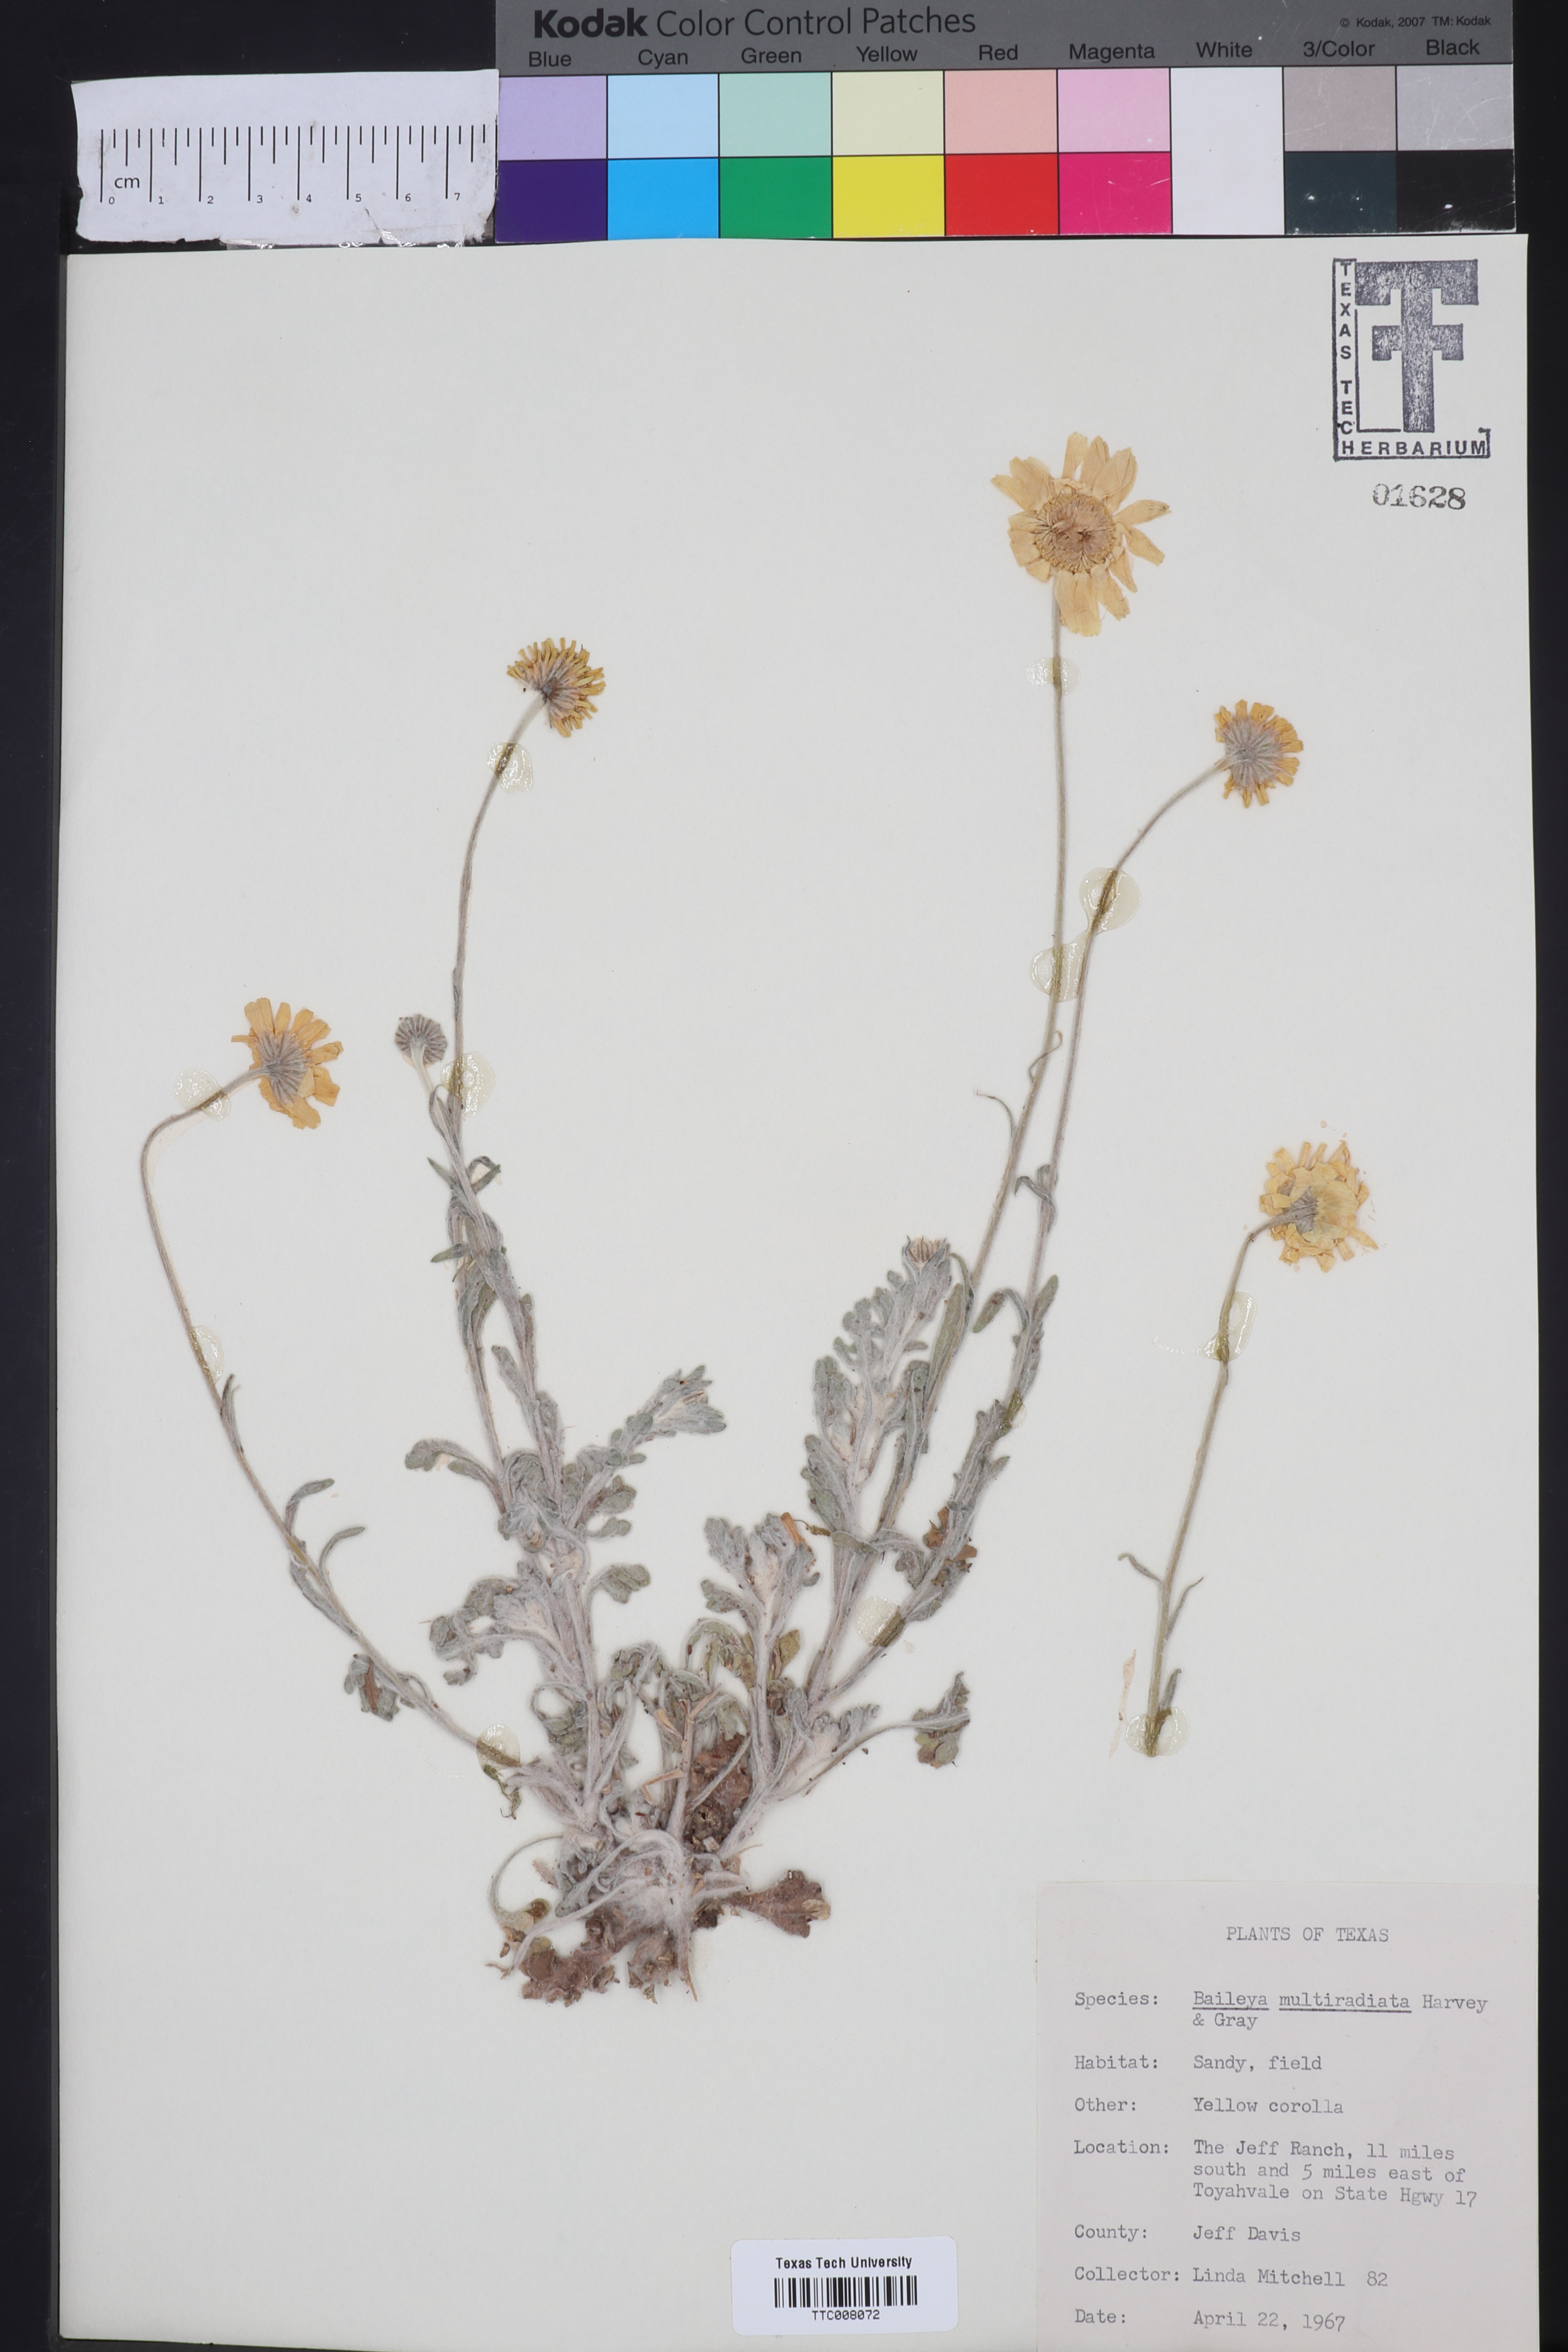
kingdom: Plantae
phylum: Tracheophyta
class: Magnoliopsida
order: Asterales
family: Asteraceae
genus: Baileya
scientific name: Baileya multiradiata
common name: Desert-marigold
